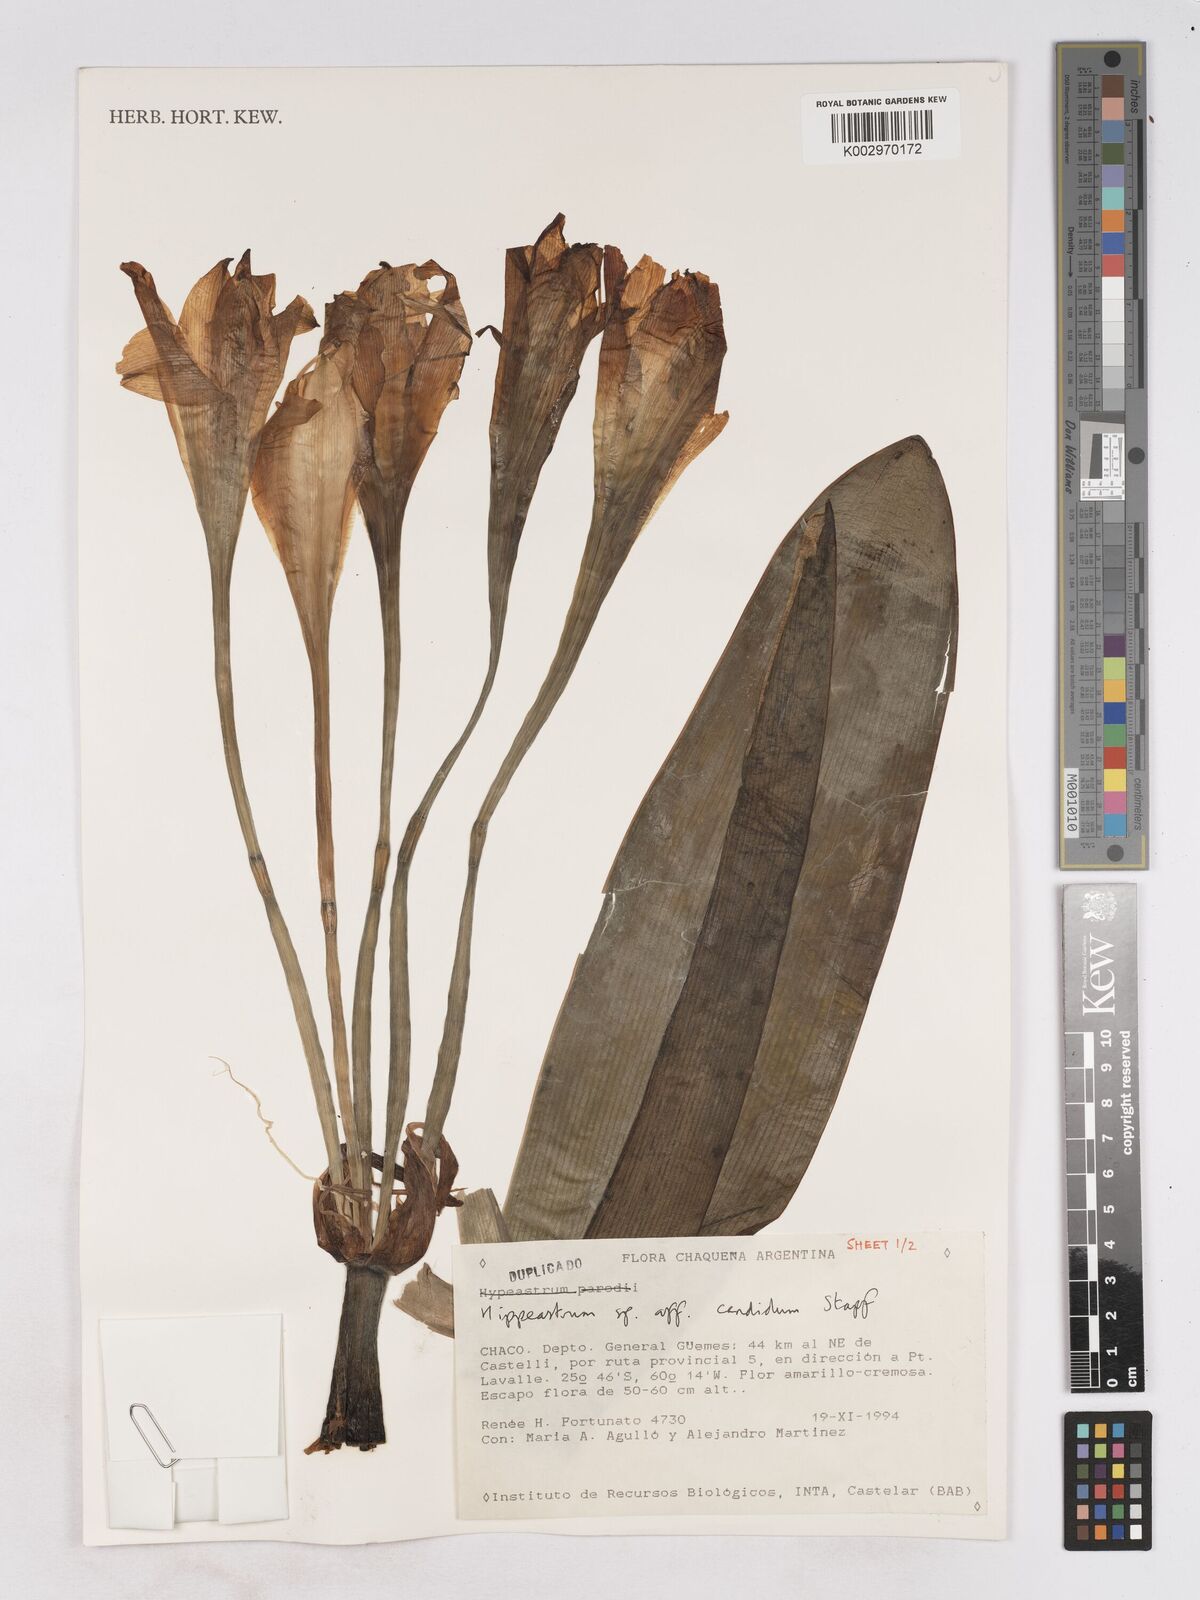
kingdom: Plantae
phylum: Tracheophyta
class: Liliopsida
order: Asparagales
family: Amaryllidaceae
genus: Hippeastrum
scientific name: Hippeastrum argentinum
